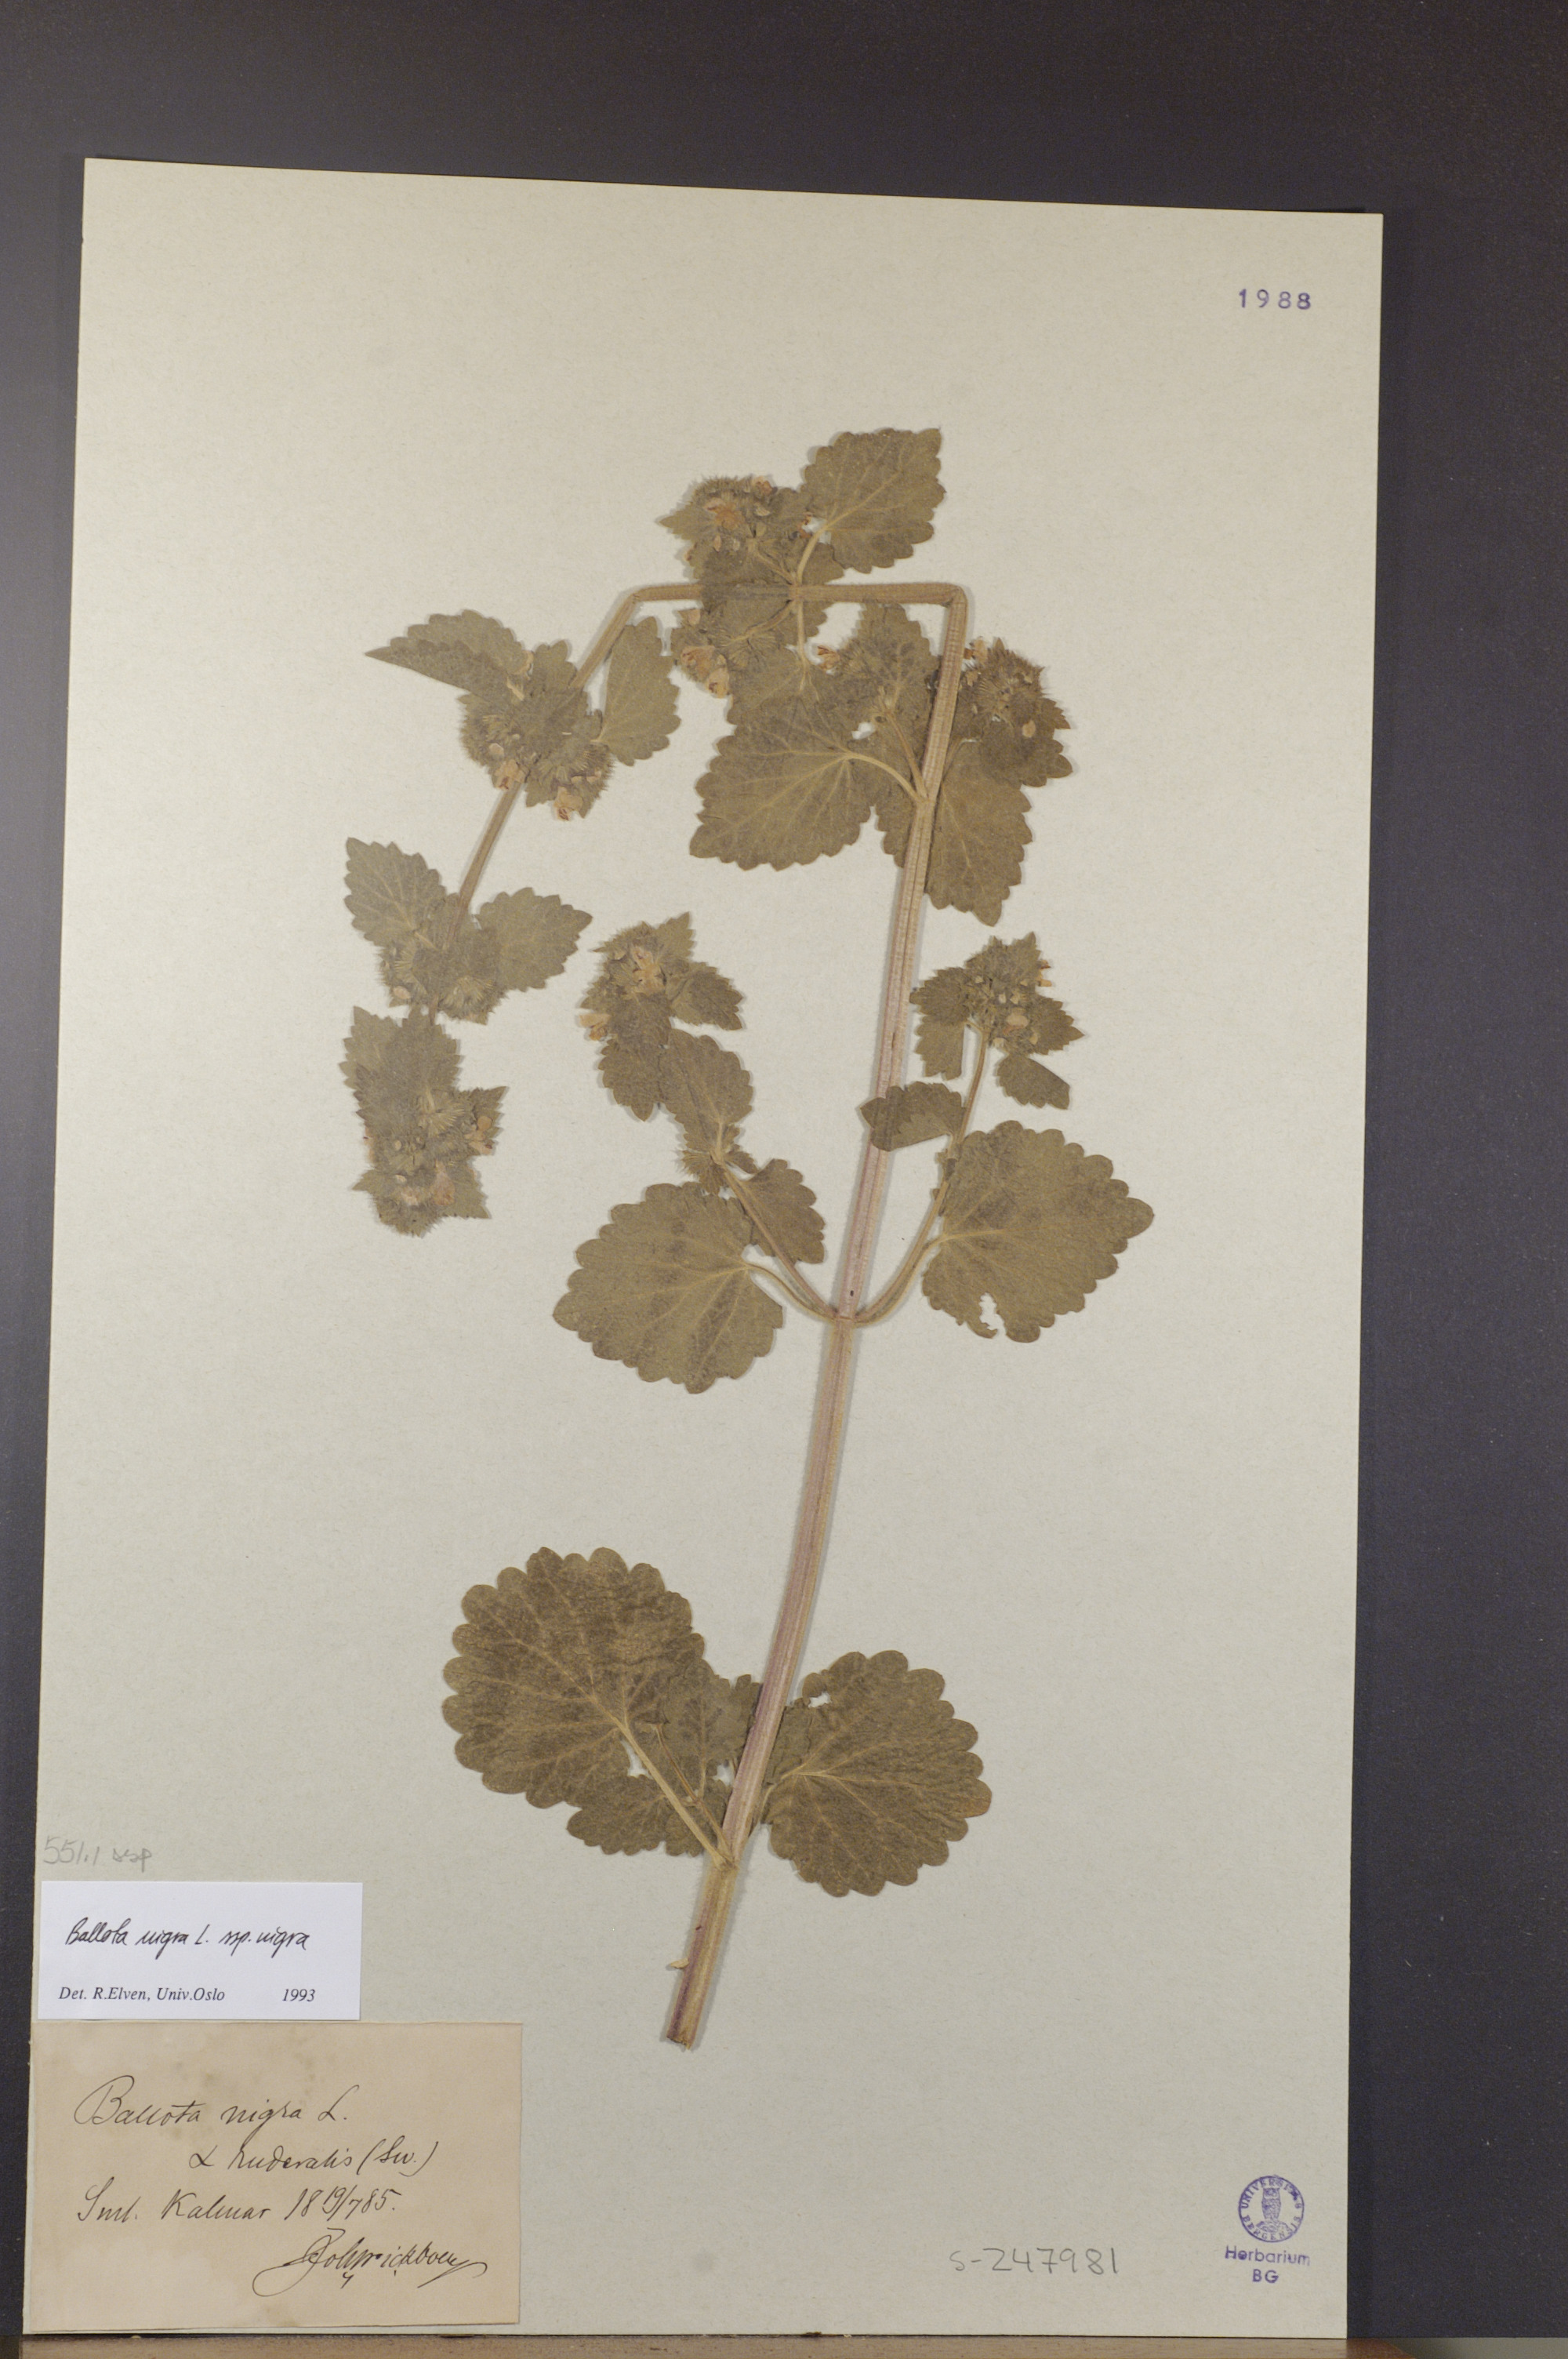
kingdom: Plantae
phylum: Tracheophyta
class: Magnoliopsida
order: Lamiales
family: Lamiaceae
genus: Ballota
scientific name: Ballota nigra
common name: Black horehound
